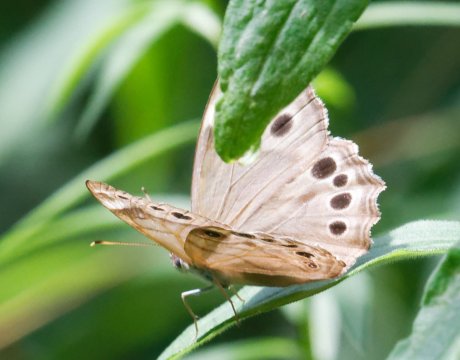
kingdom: Animalia
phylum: Arthropoda
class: Insecta
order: Lepidoptera
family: Nymphalidae
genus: Lethe
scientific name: Lethe anthedon
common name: Northern Pearly-Eye
